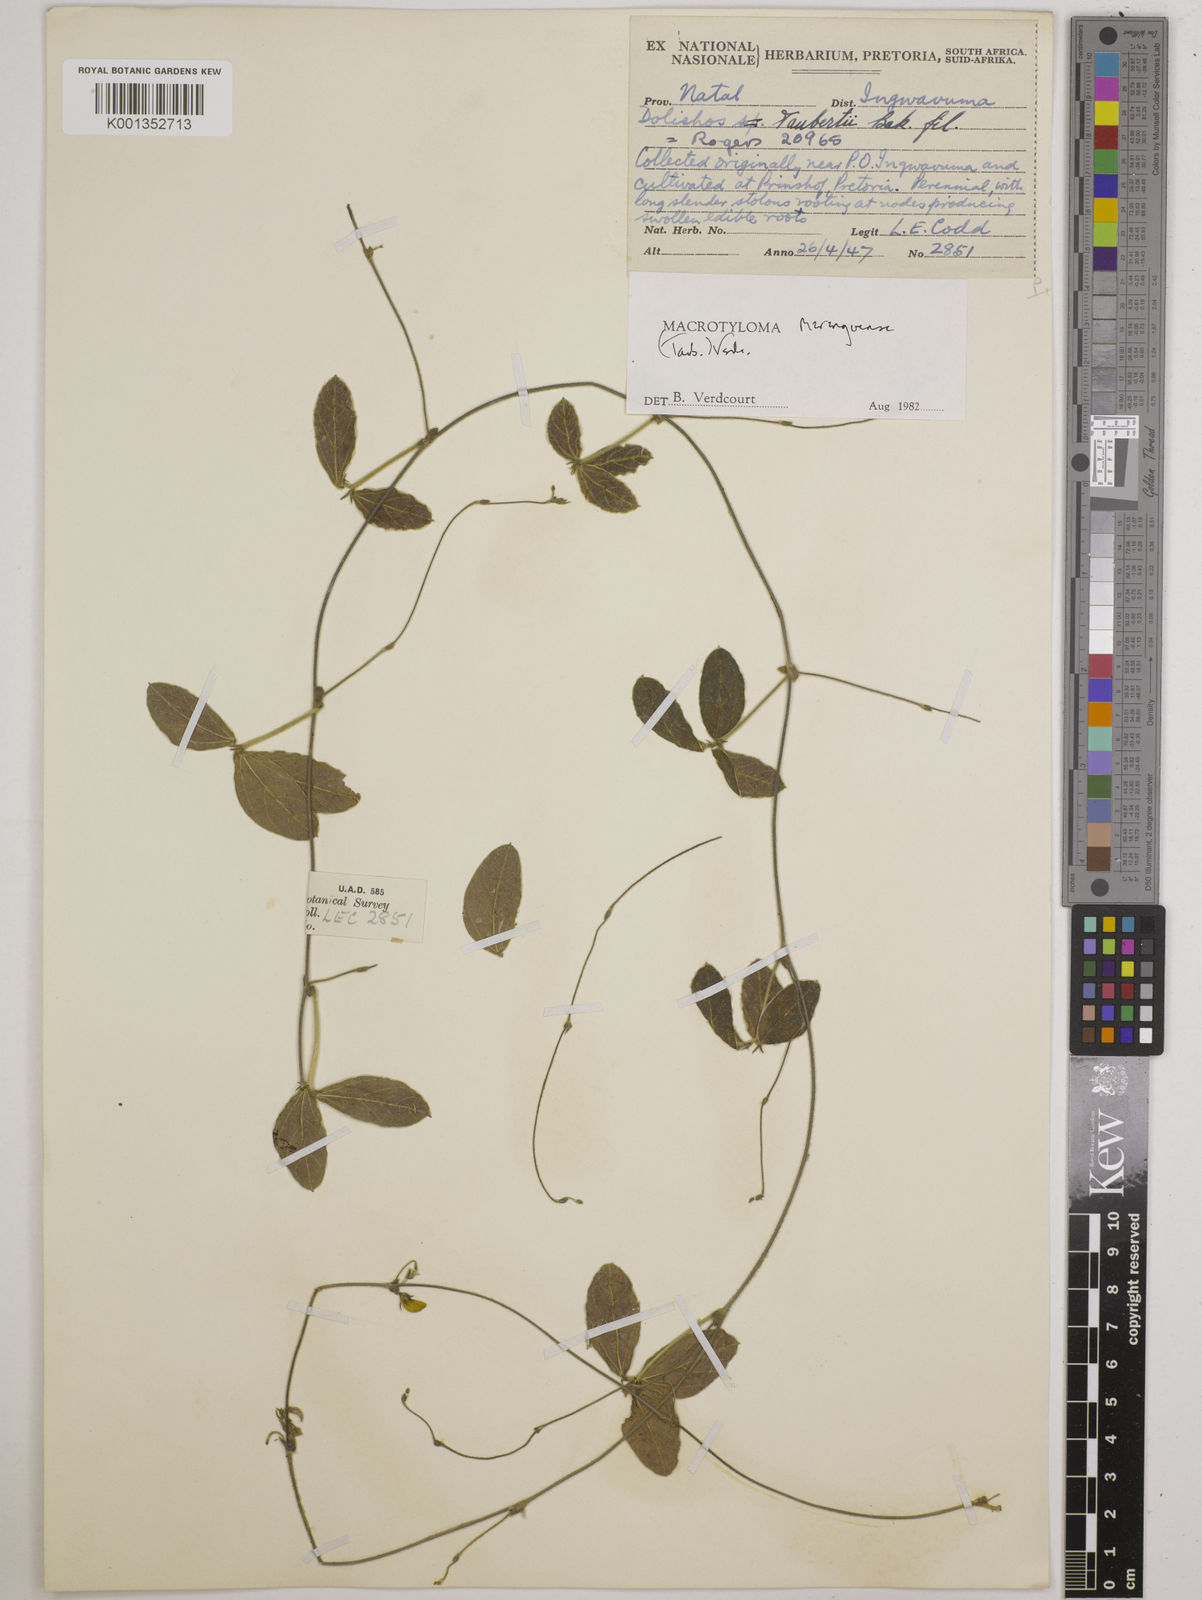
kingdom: Plantae
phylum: Tracheophyta
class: Magnoliopsida
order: Fabales
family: Fabaceae
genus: Macrotyloma
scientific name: Macrotyloma maranguense
